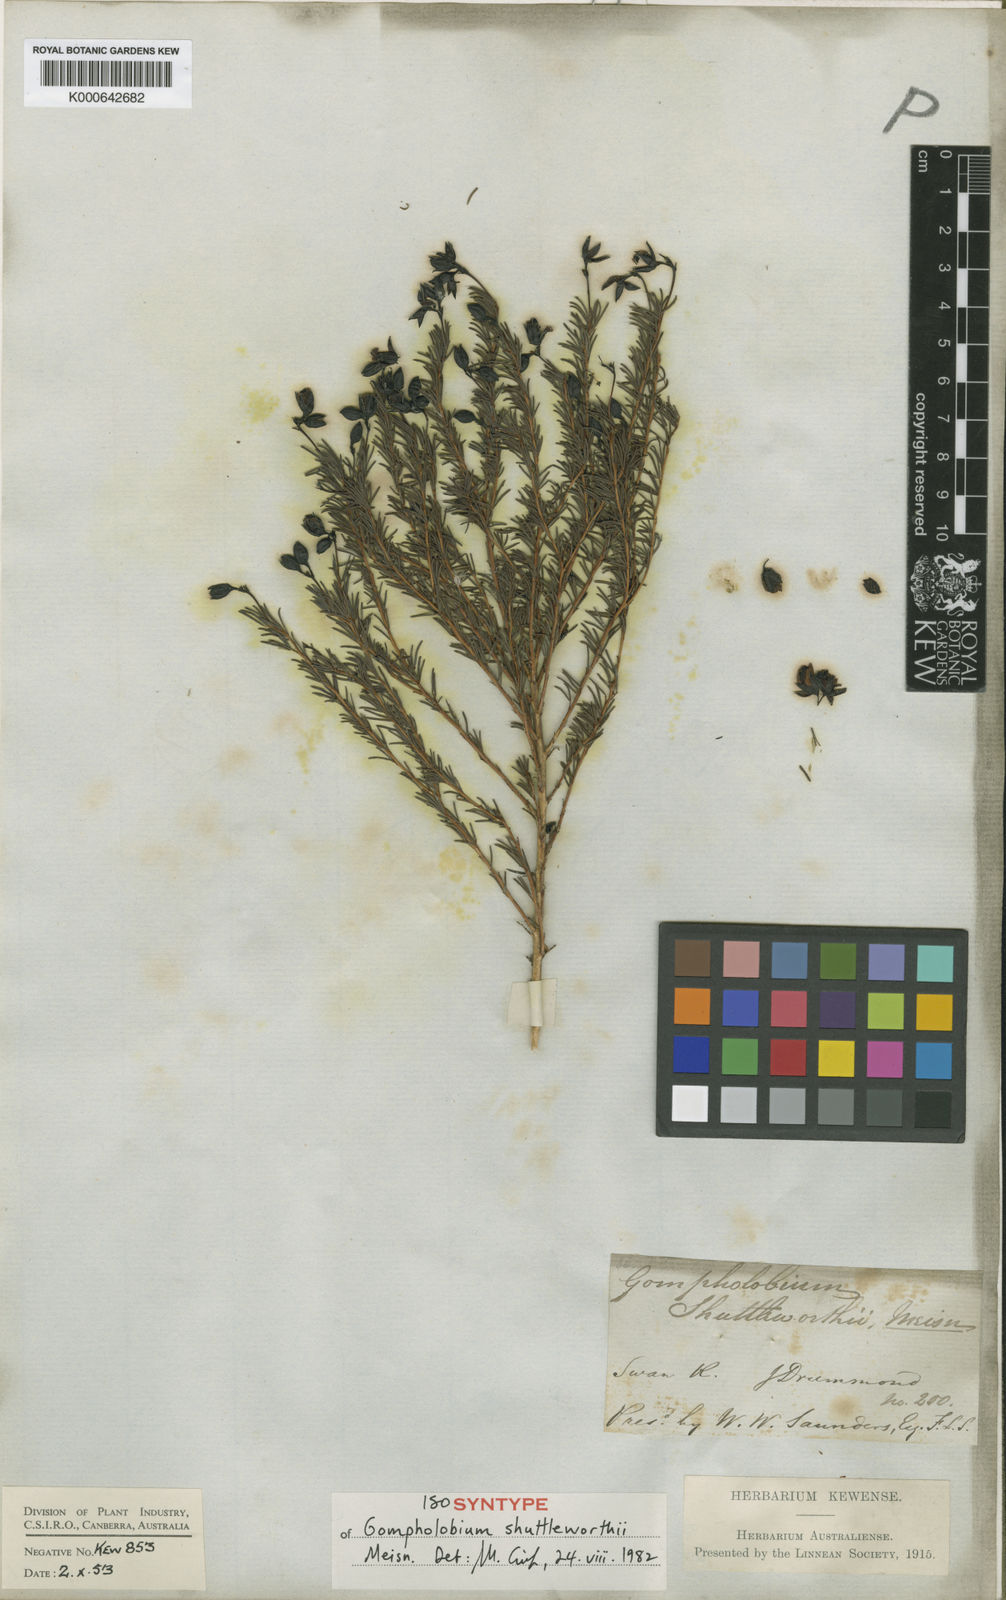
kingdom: Plantae
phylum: Tracheophyta
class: Magnoliopsida
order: Fabales
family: Fabaceae
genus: Gompholobium
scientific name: Gompholobium shuttleworthii
